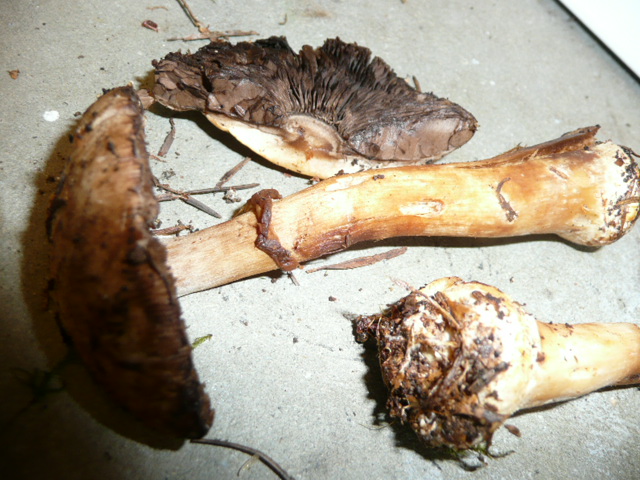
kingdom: Fungi
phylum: Basidiomycota
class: Agaricomycetes
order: Agaricales
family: Agaricaceae
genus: Agaricus
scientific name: Agaricus sylvicola
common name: gulhvid champignon
